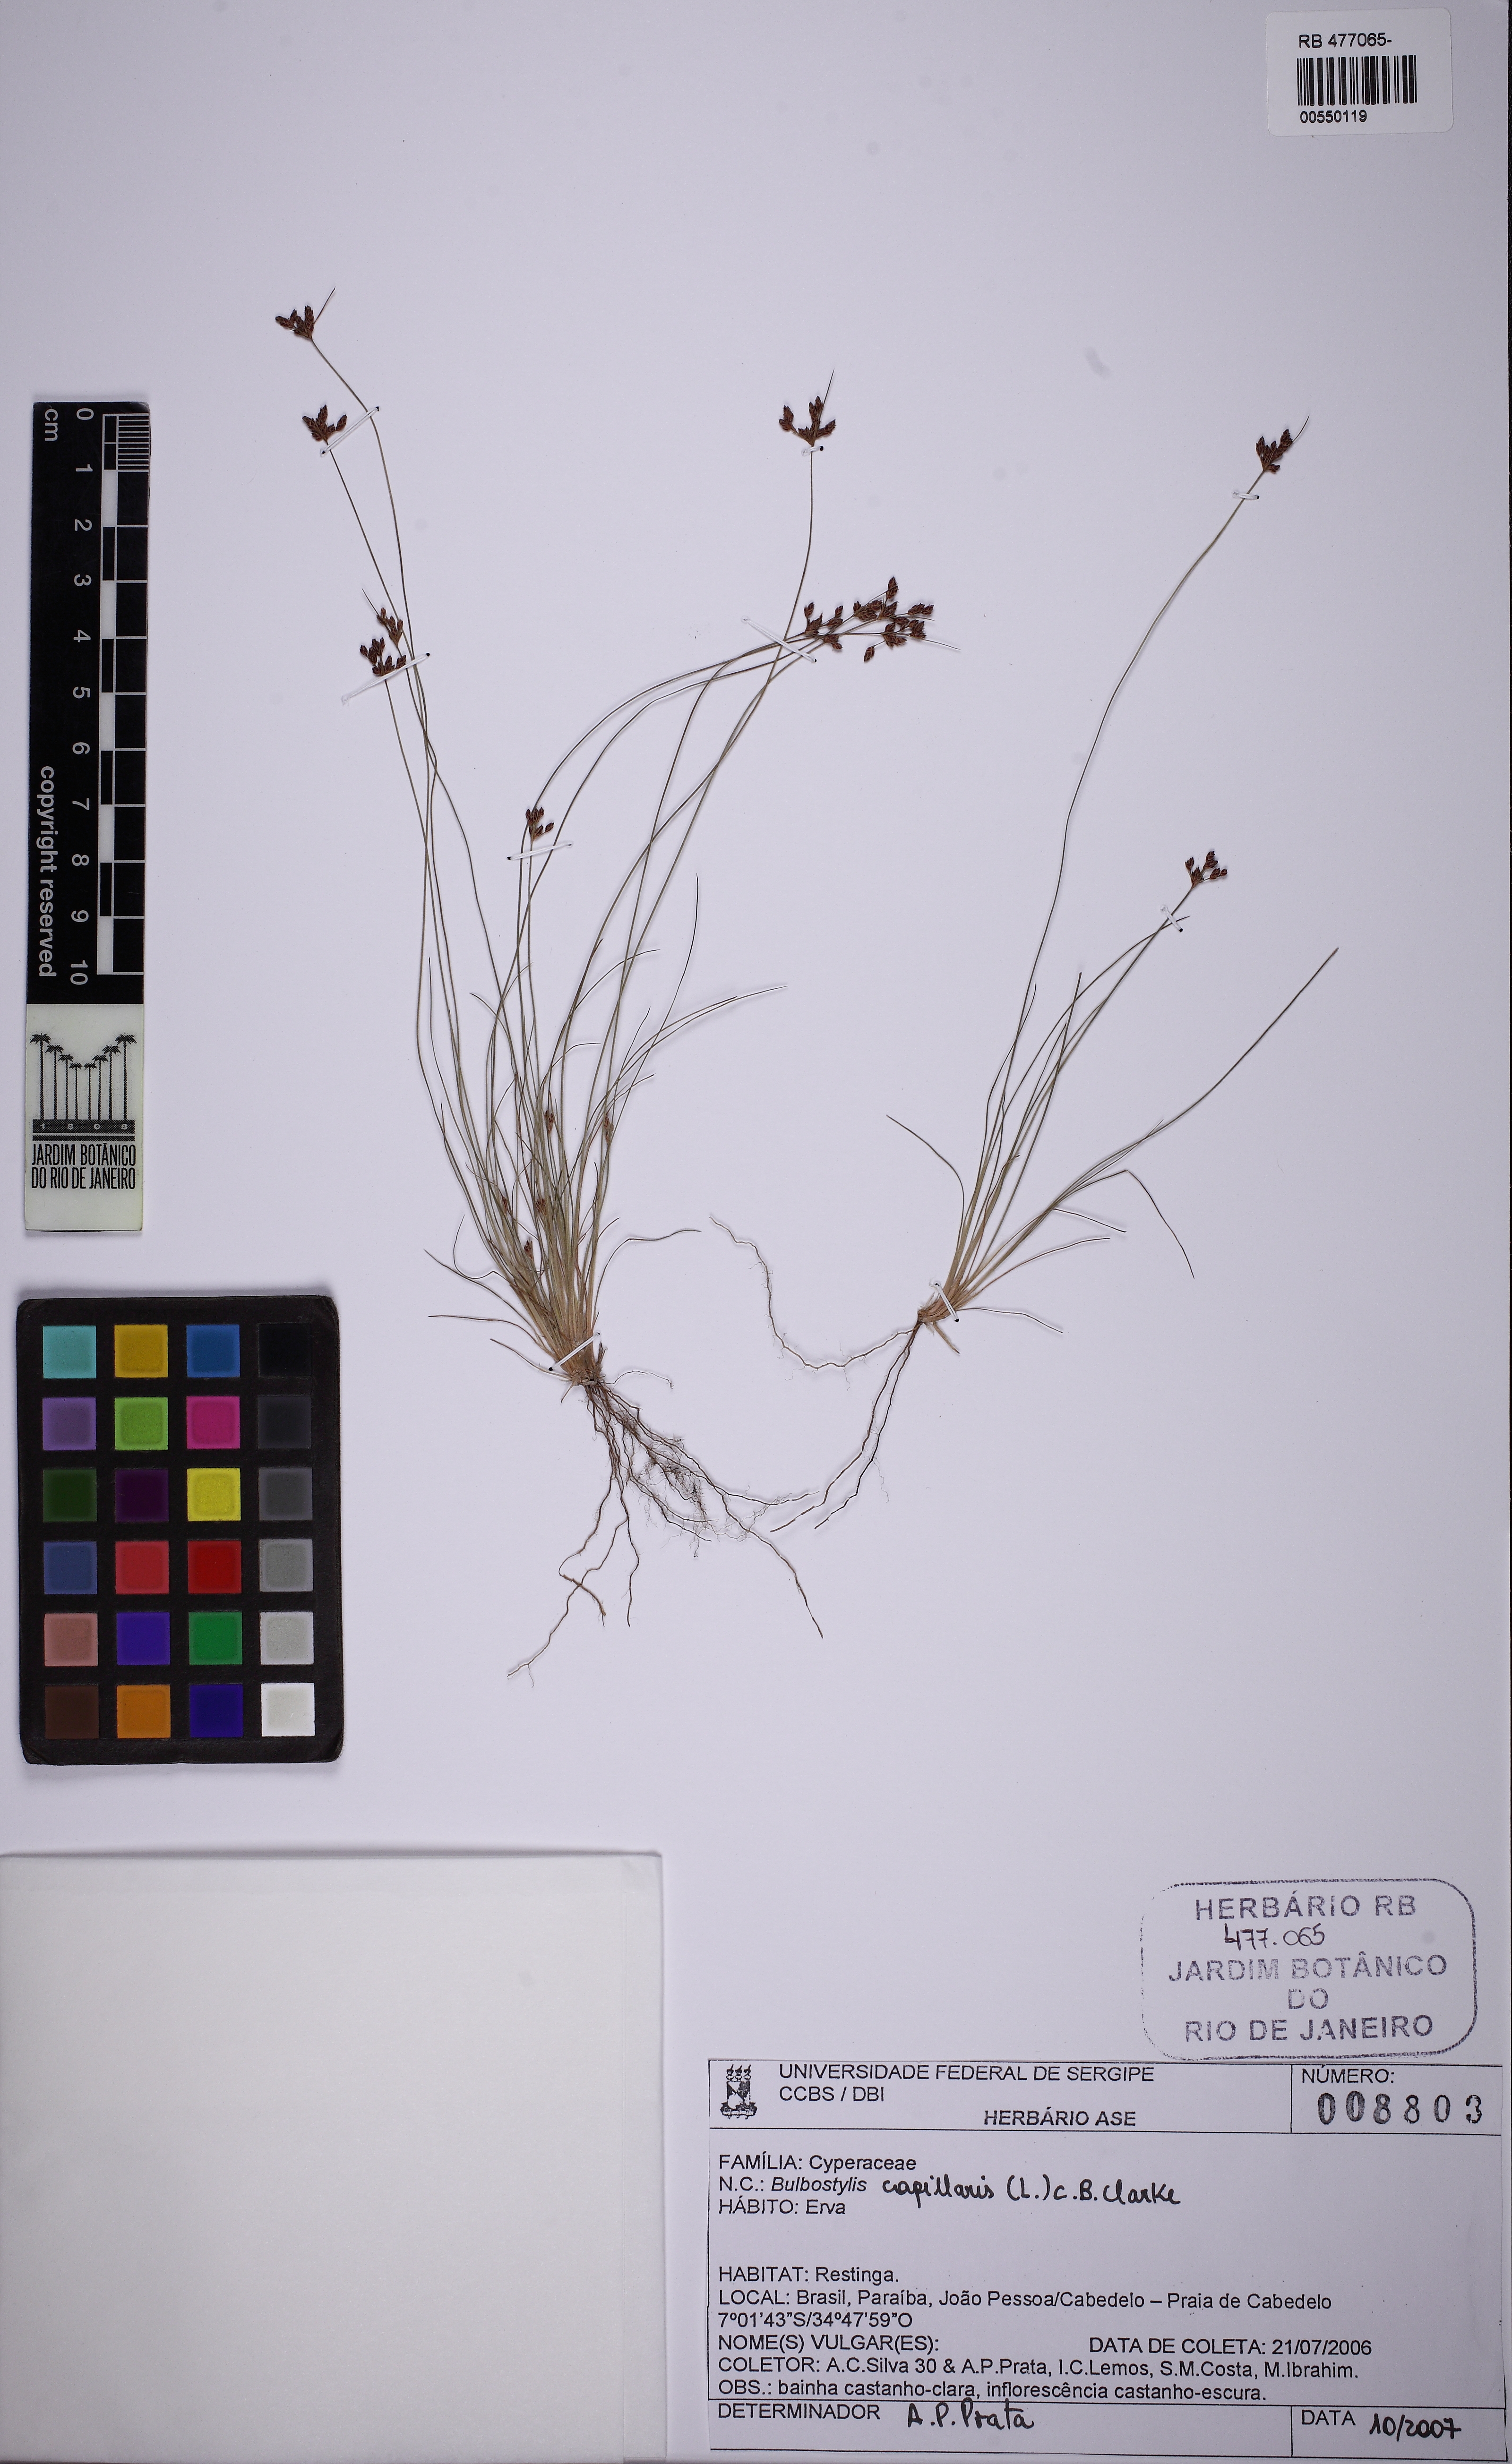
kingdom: Plantae
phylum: Tracheophyta
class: Liliopsida
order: Poales
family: Cyperaceae
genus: Bulbostylis
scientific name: Bulbostylis capillaris
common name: Densetuft hairsedge
